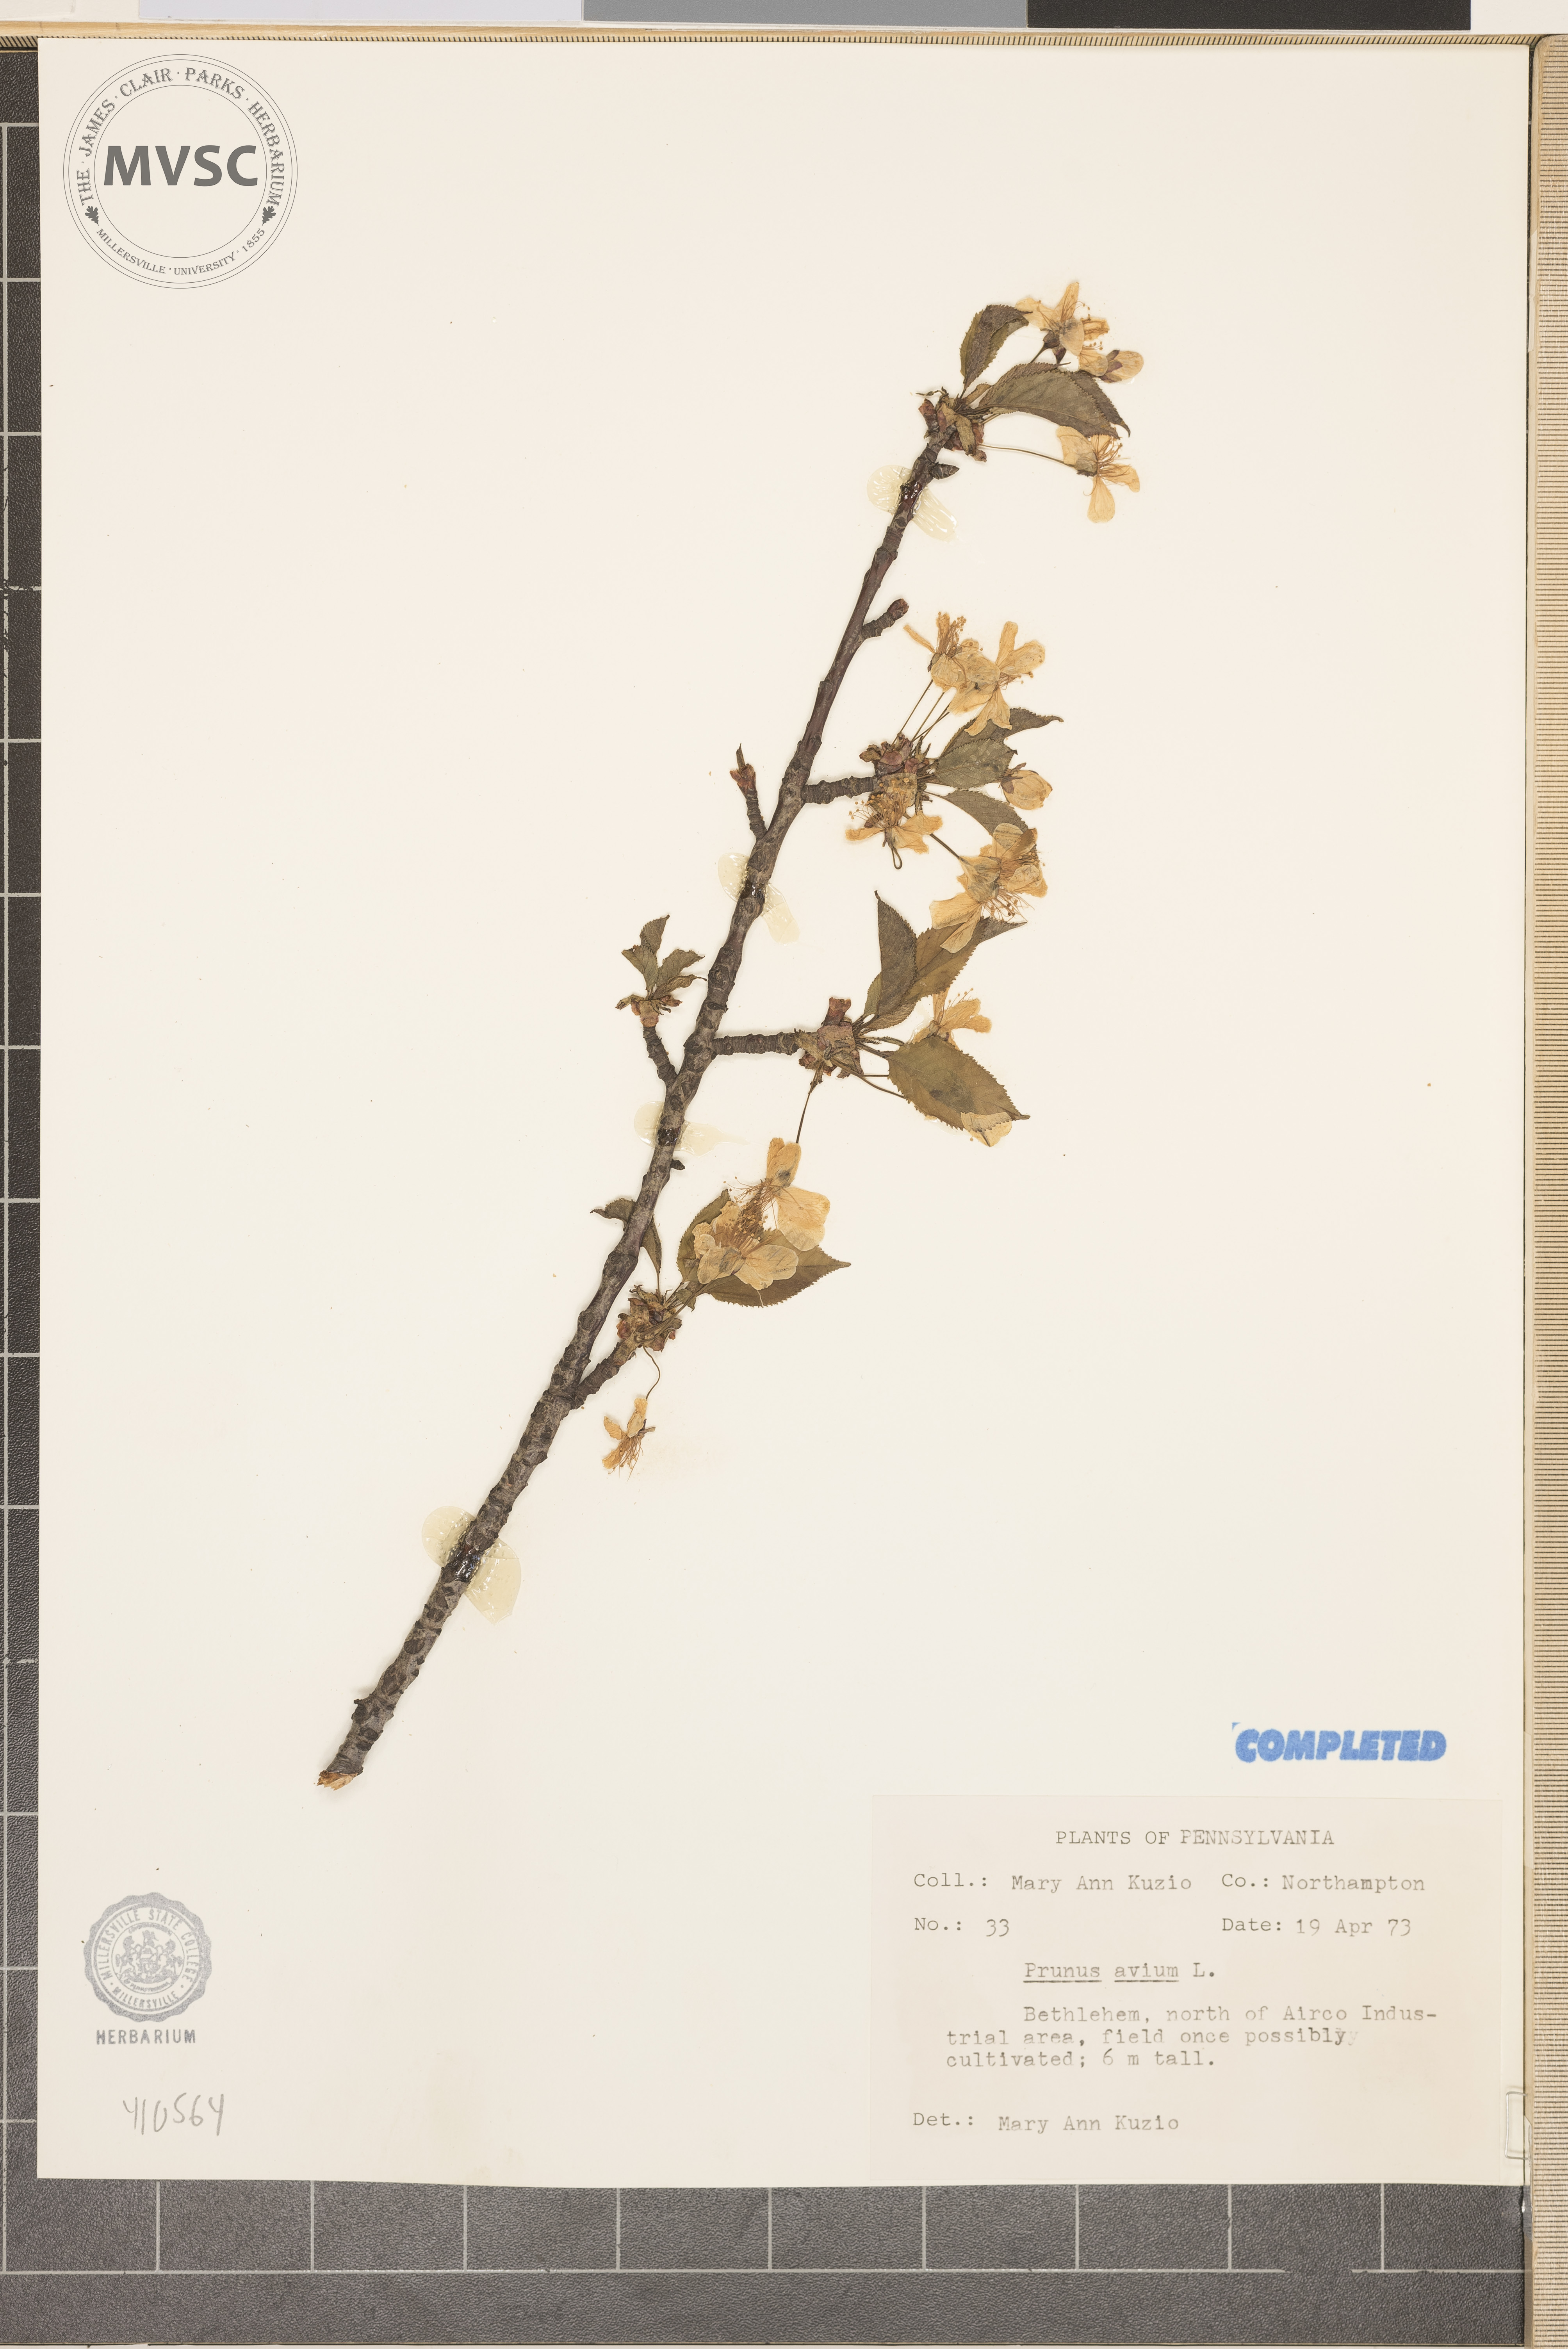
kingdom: Plantae
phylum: Tracheophyta
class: Magnoliopsida
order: Rosales
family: Rosaceae
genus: Prunus
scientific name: Prunus avium
